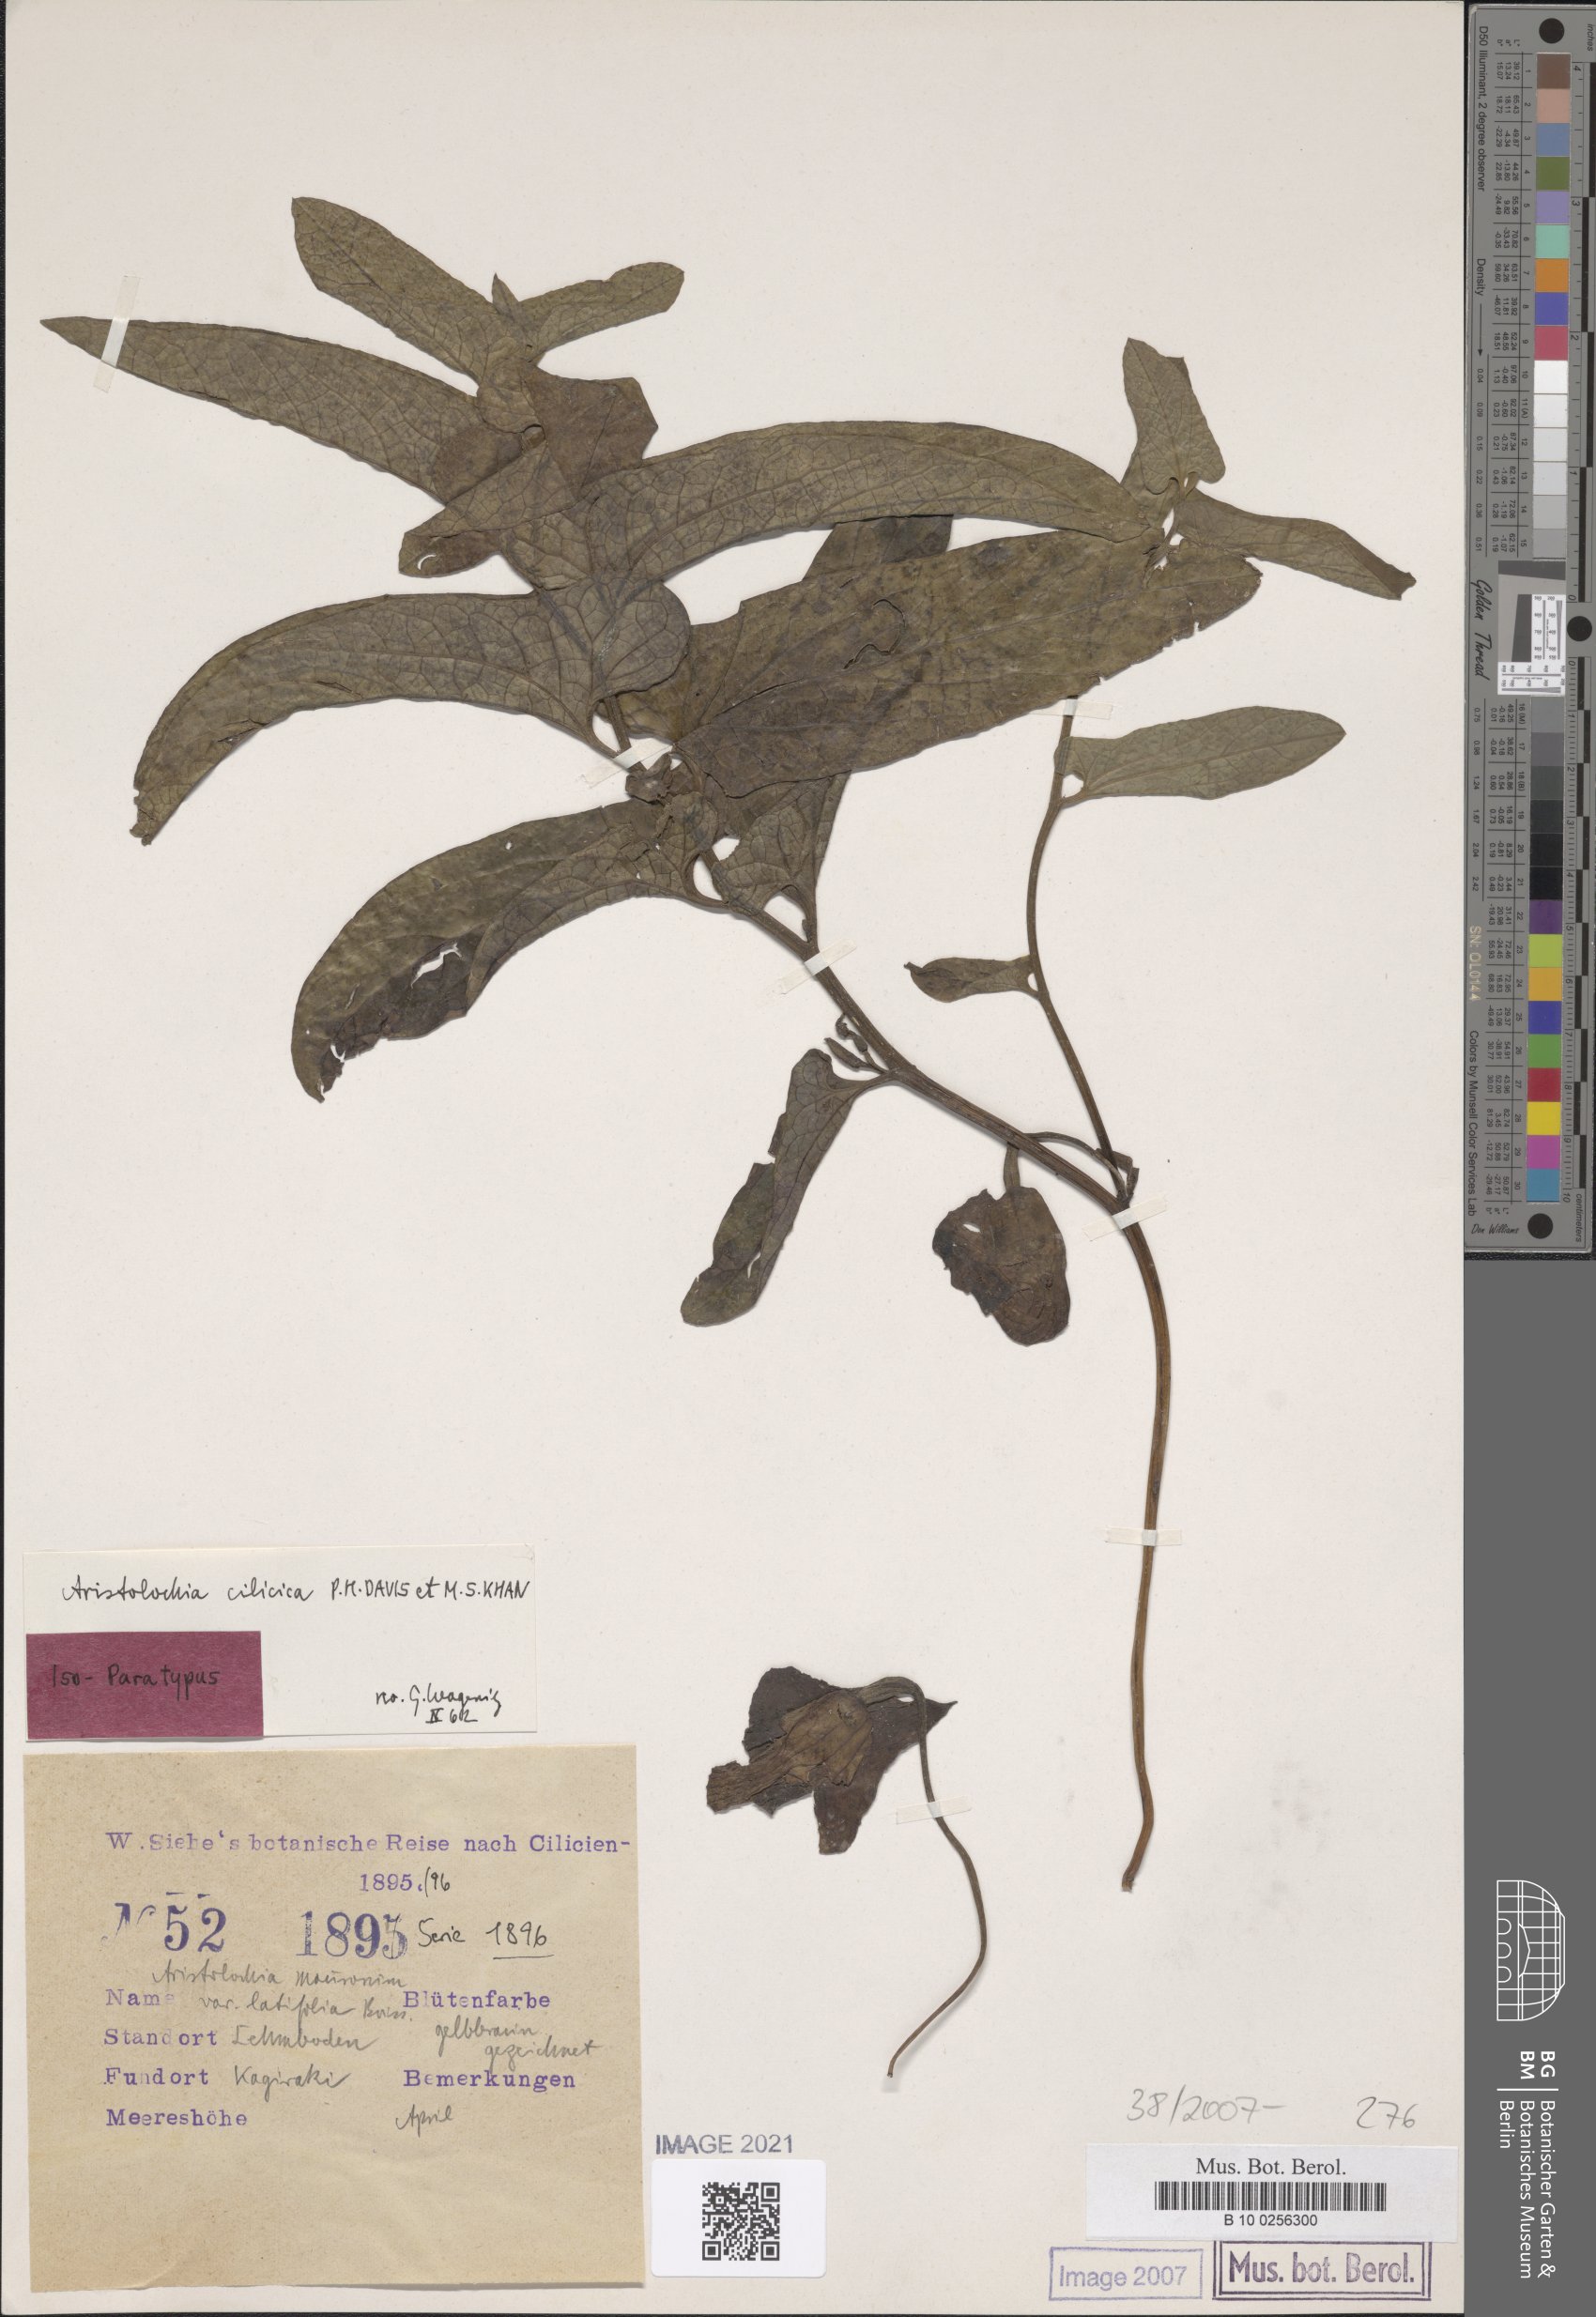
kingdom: Plantae
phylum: Tracheophyta
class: Magnoliopsida
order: Piperales
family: Aristolochiaceae
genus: Aristolochia
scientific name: Aristolochia cilicica
